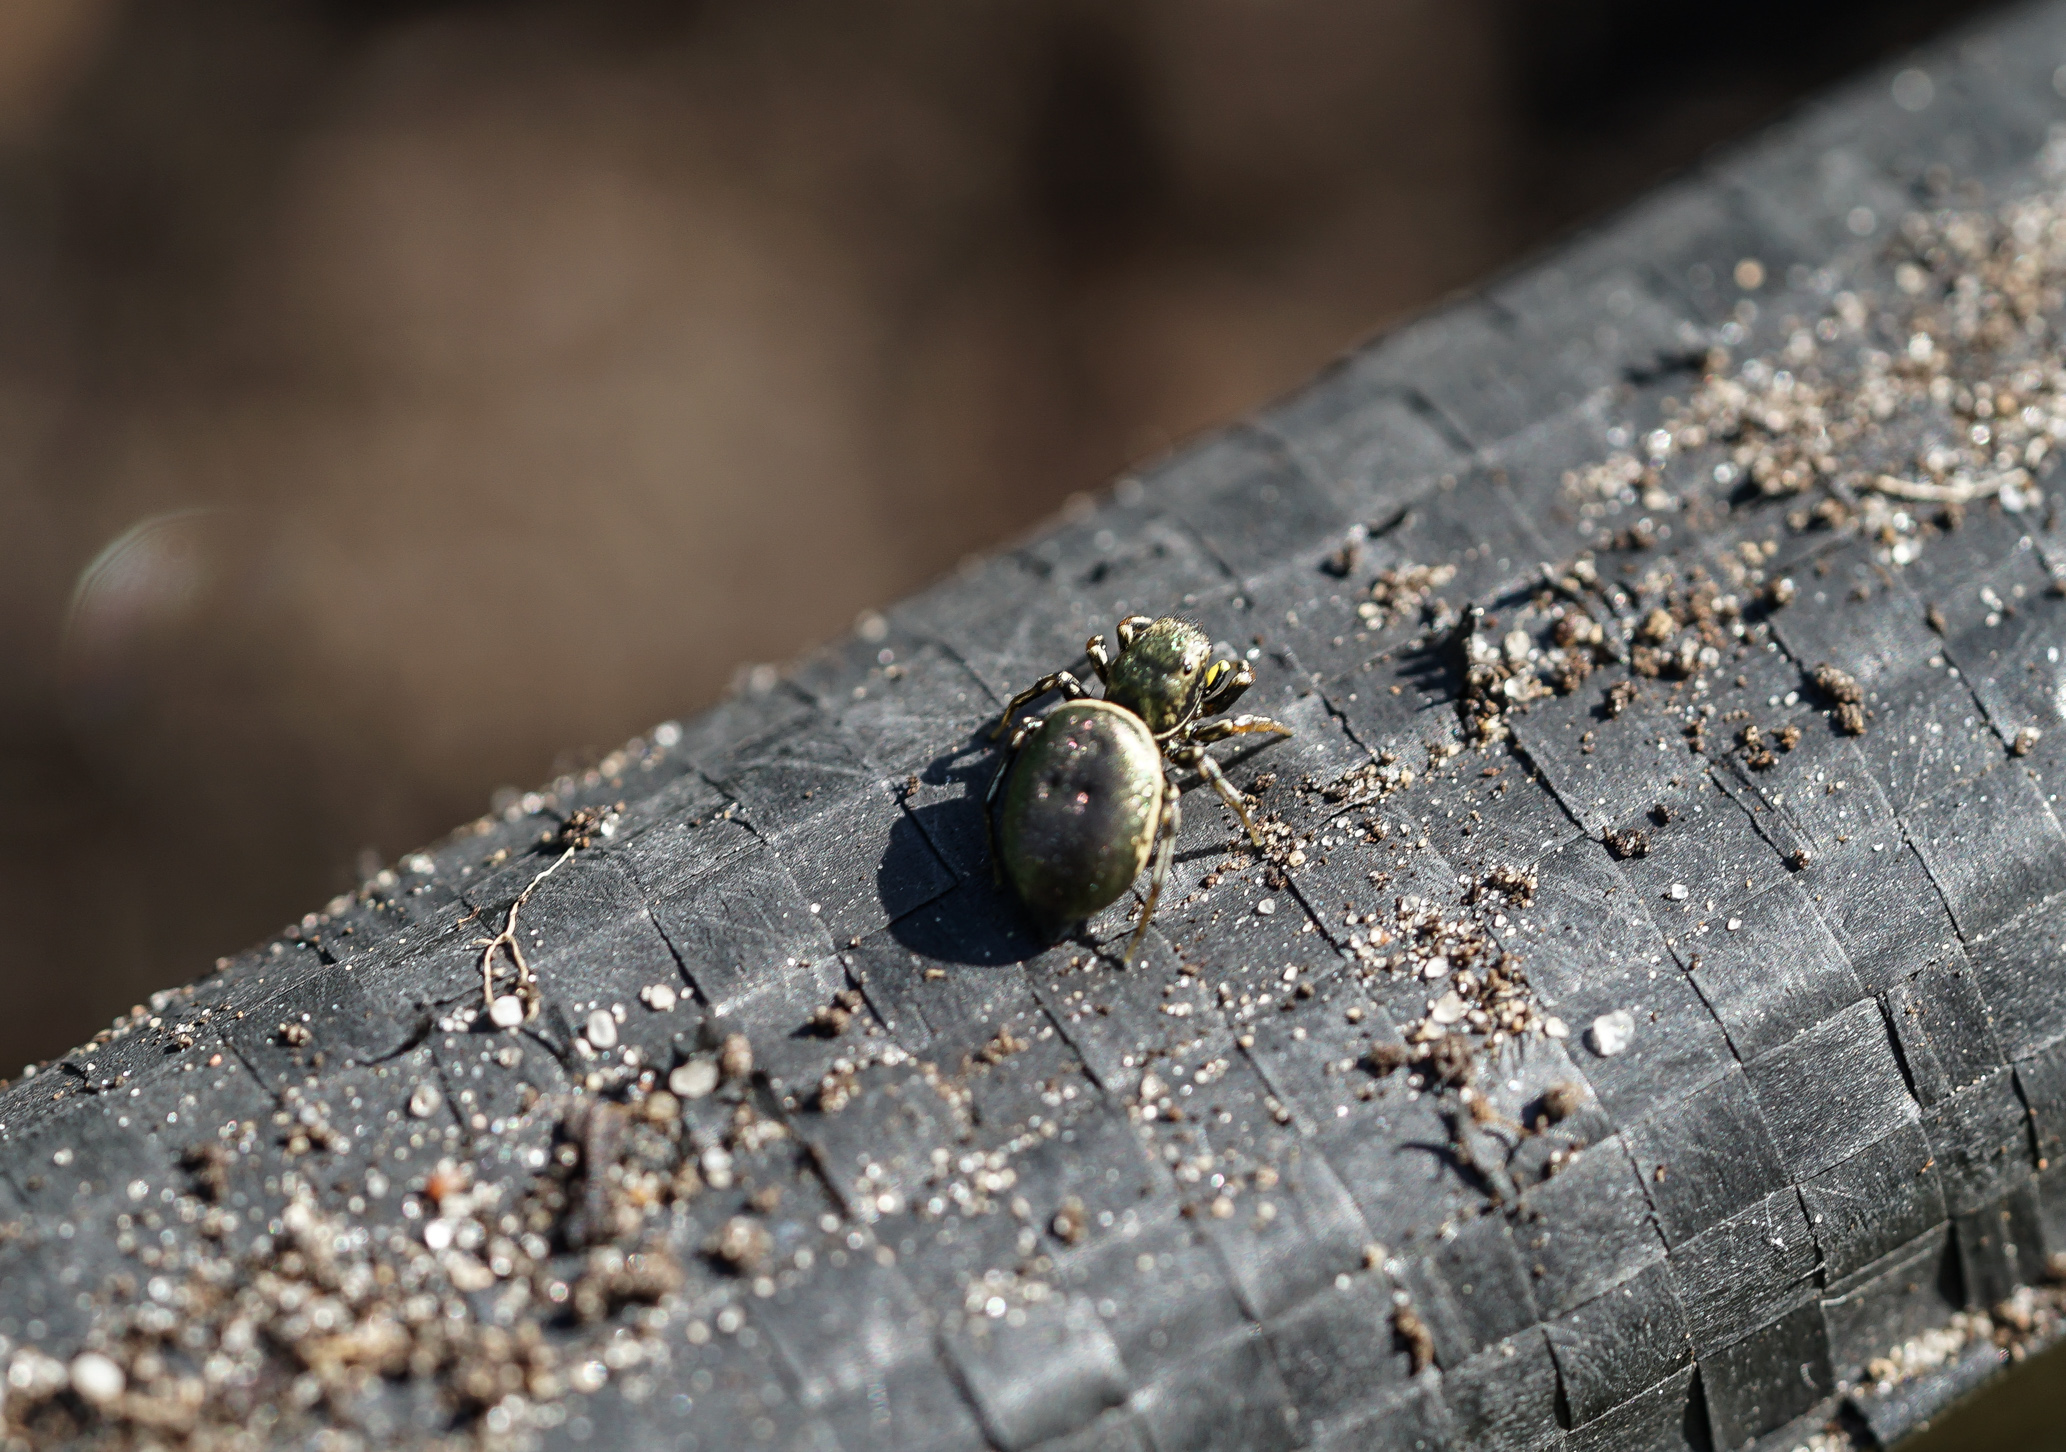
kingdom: Animalia
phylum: Arthropoda
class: Arachnida
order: Araneae
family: Salticidae
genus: Heliophanus
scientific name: Heliophanus cupreus
